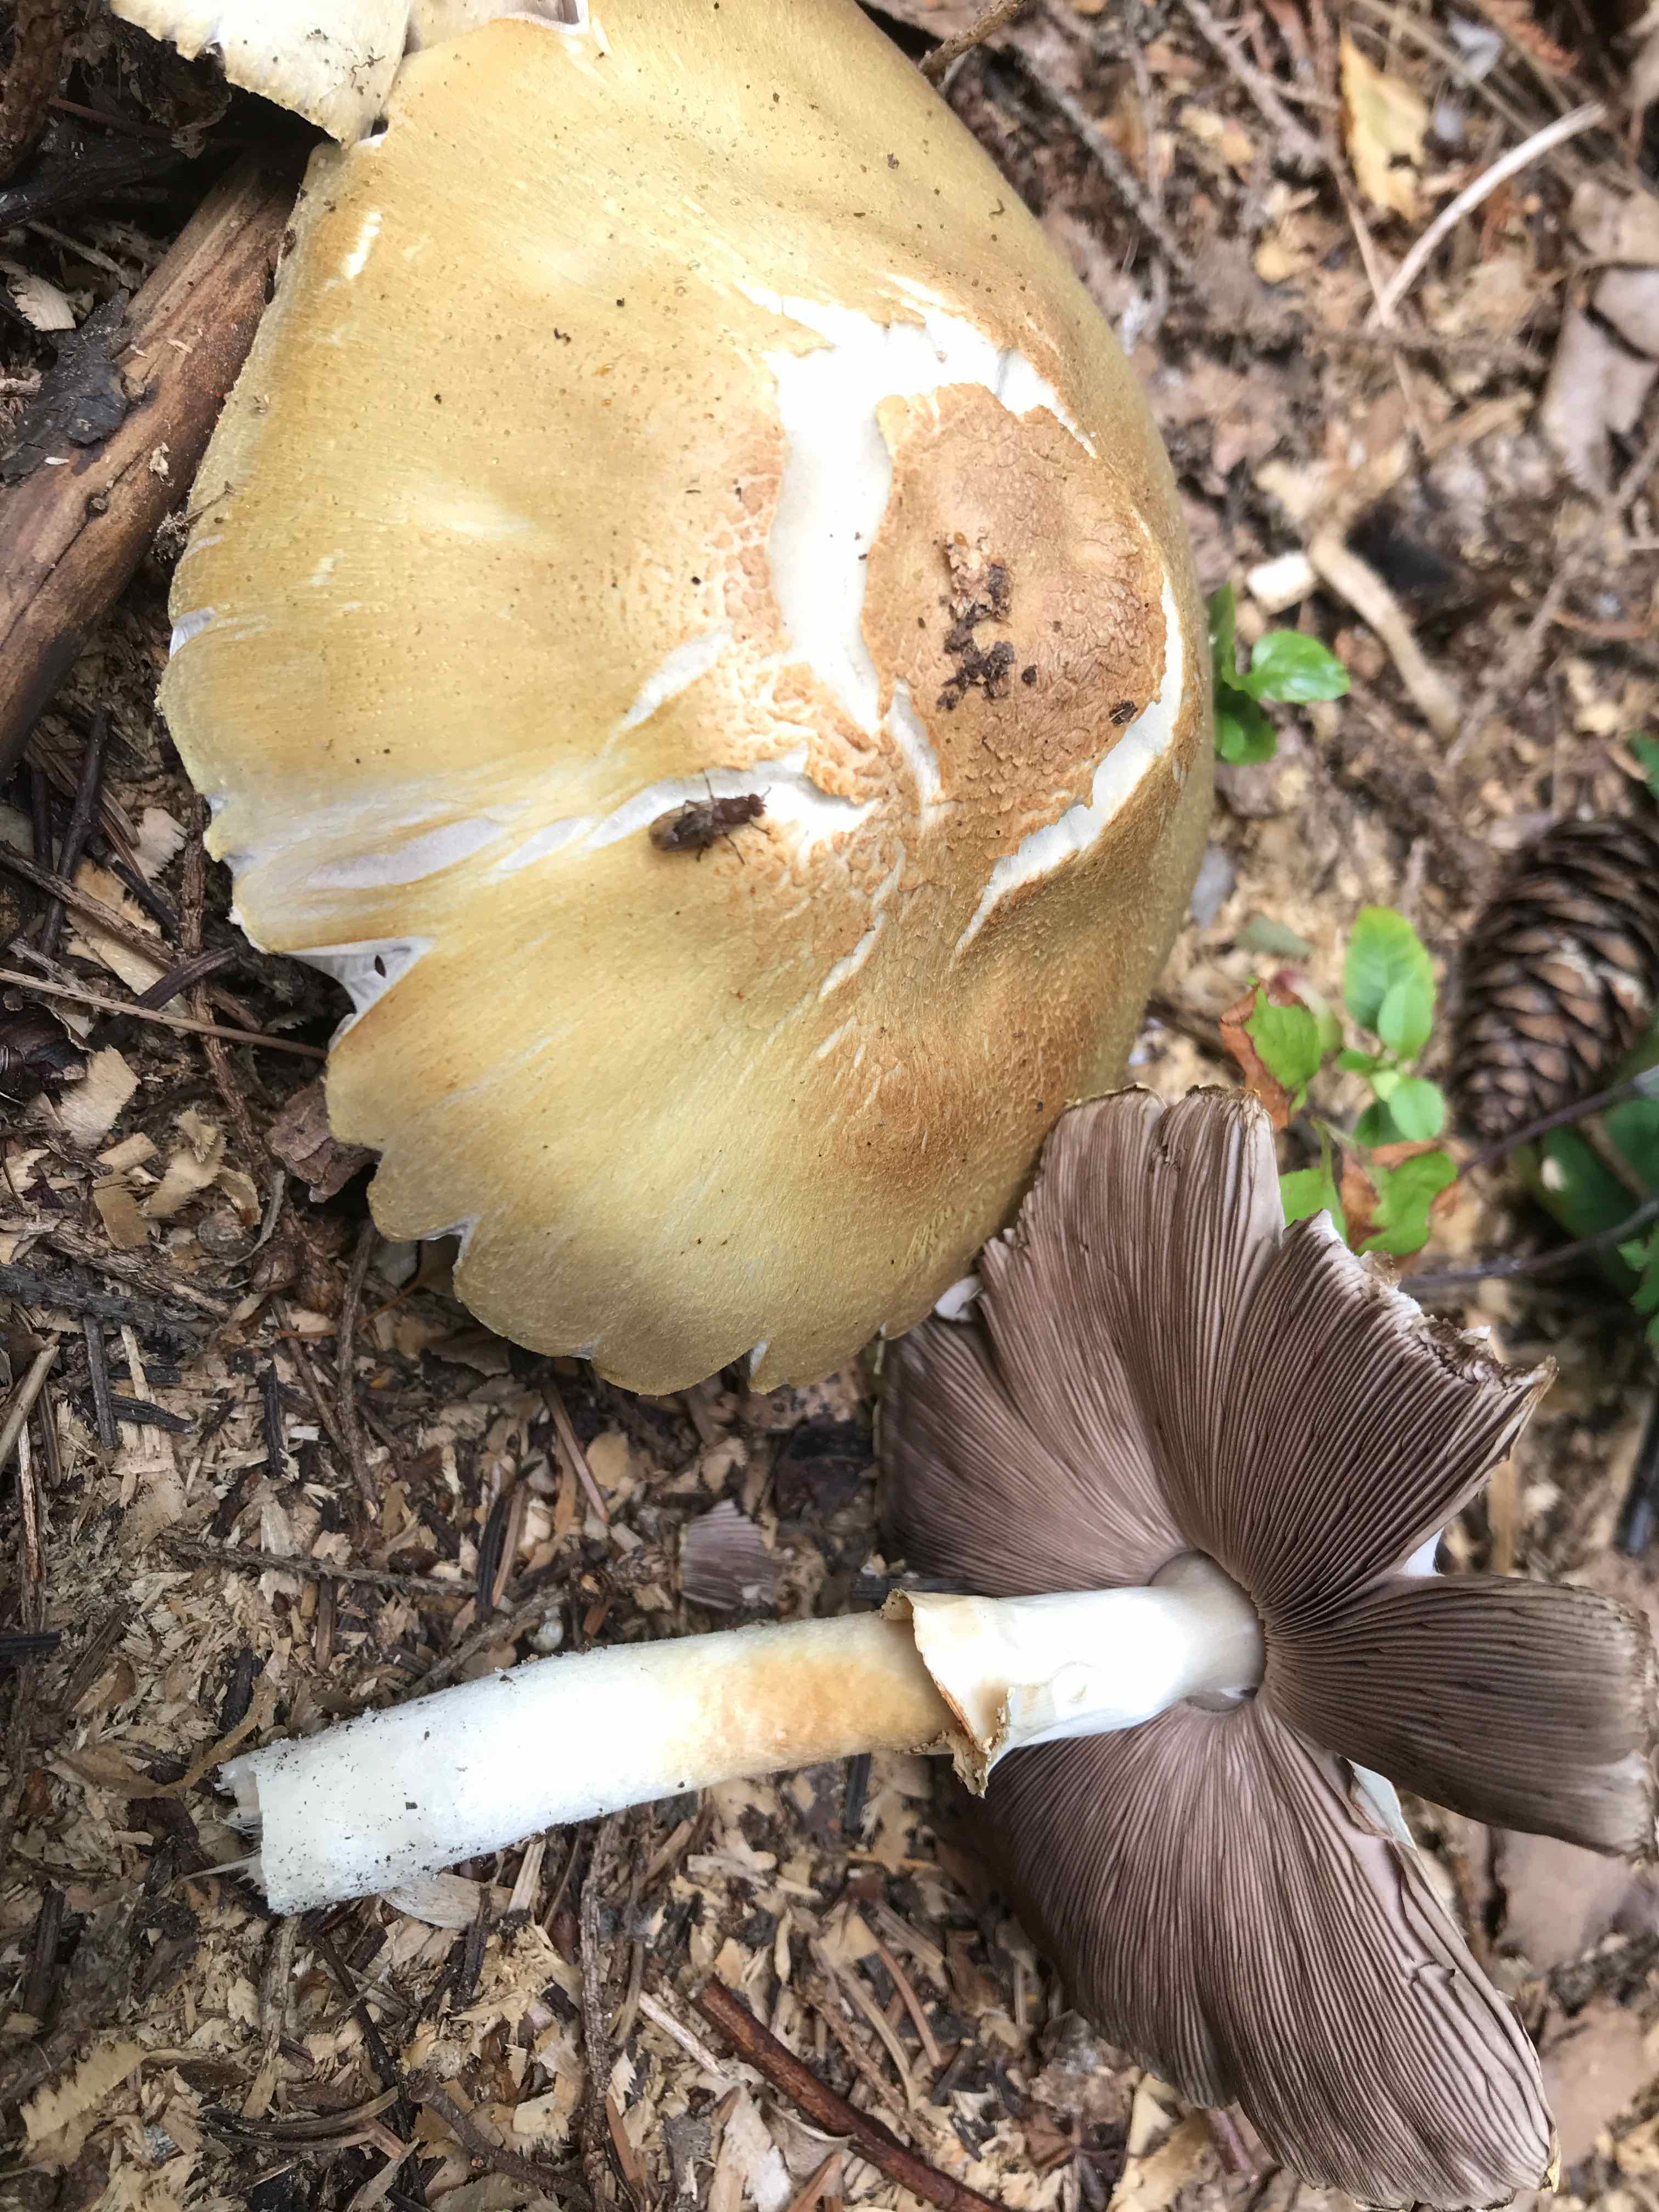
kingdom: Fungi
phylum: Basidiomycota
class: Agaricomycetes
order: Agaricales
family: Agaricaceae
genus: Agaricus
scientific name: Agaricus
